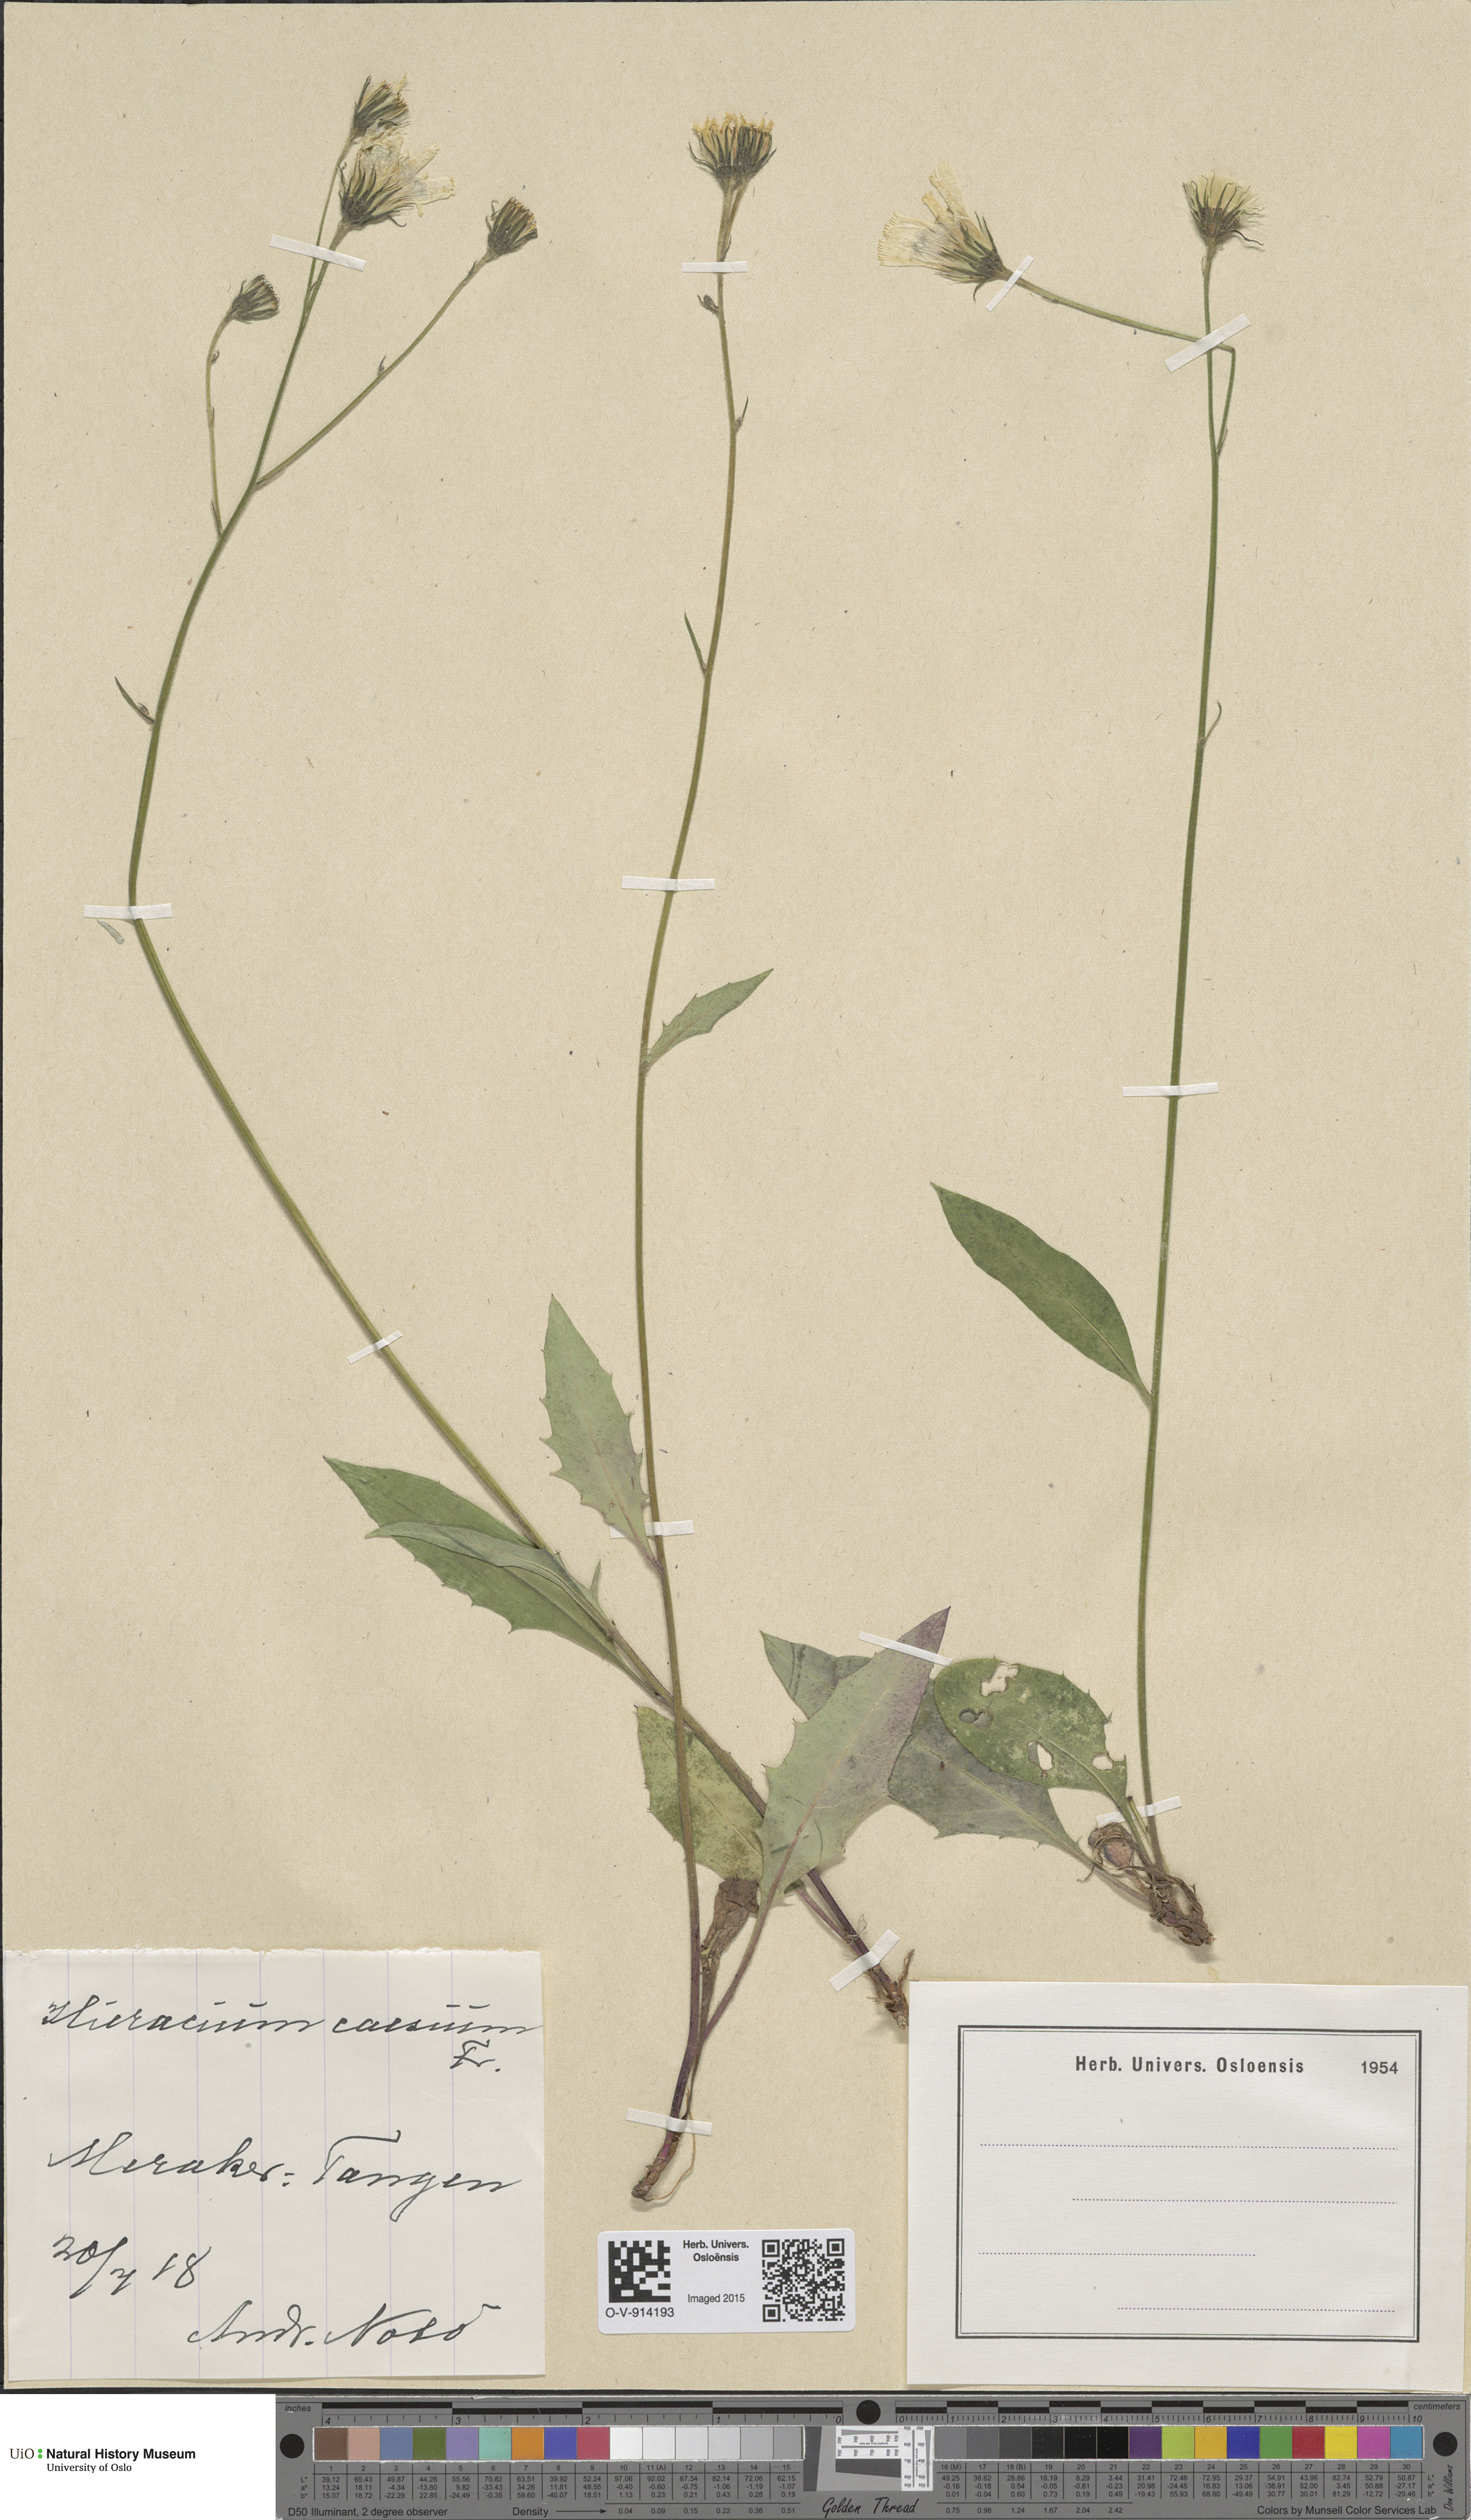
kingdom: Plantae
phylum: Tracheophyta
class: Magnoliopsida
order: Asterales
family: Asteraceae
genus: Hieracium
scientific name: Hieracium caesium
